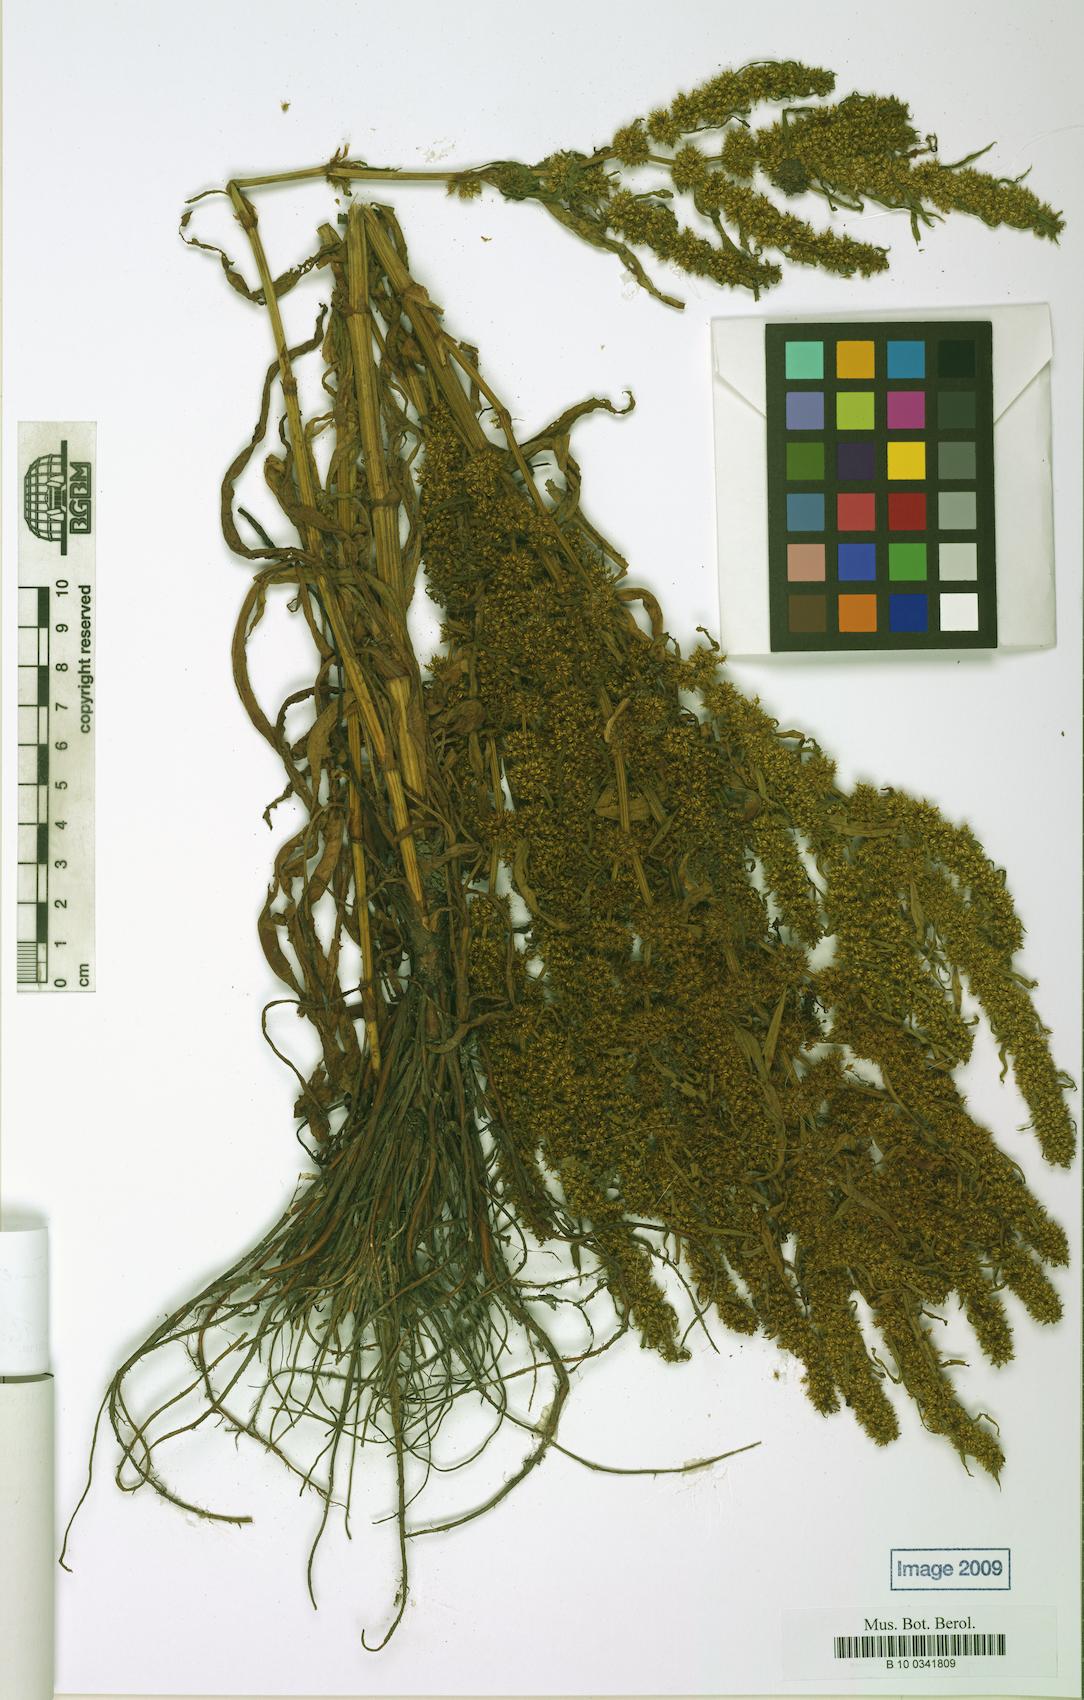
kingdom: Plantae
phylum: Tracheophyta
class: Magnoliopsida
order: Caryophyllales
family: Polygonaceae
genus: Rumex
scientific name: Rumex maritimus
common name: Golden dock
